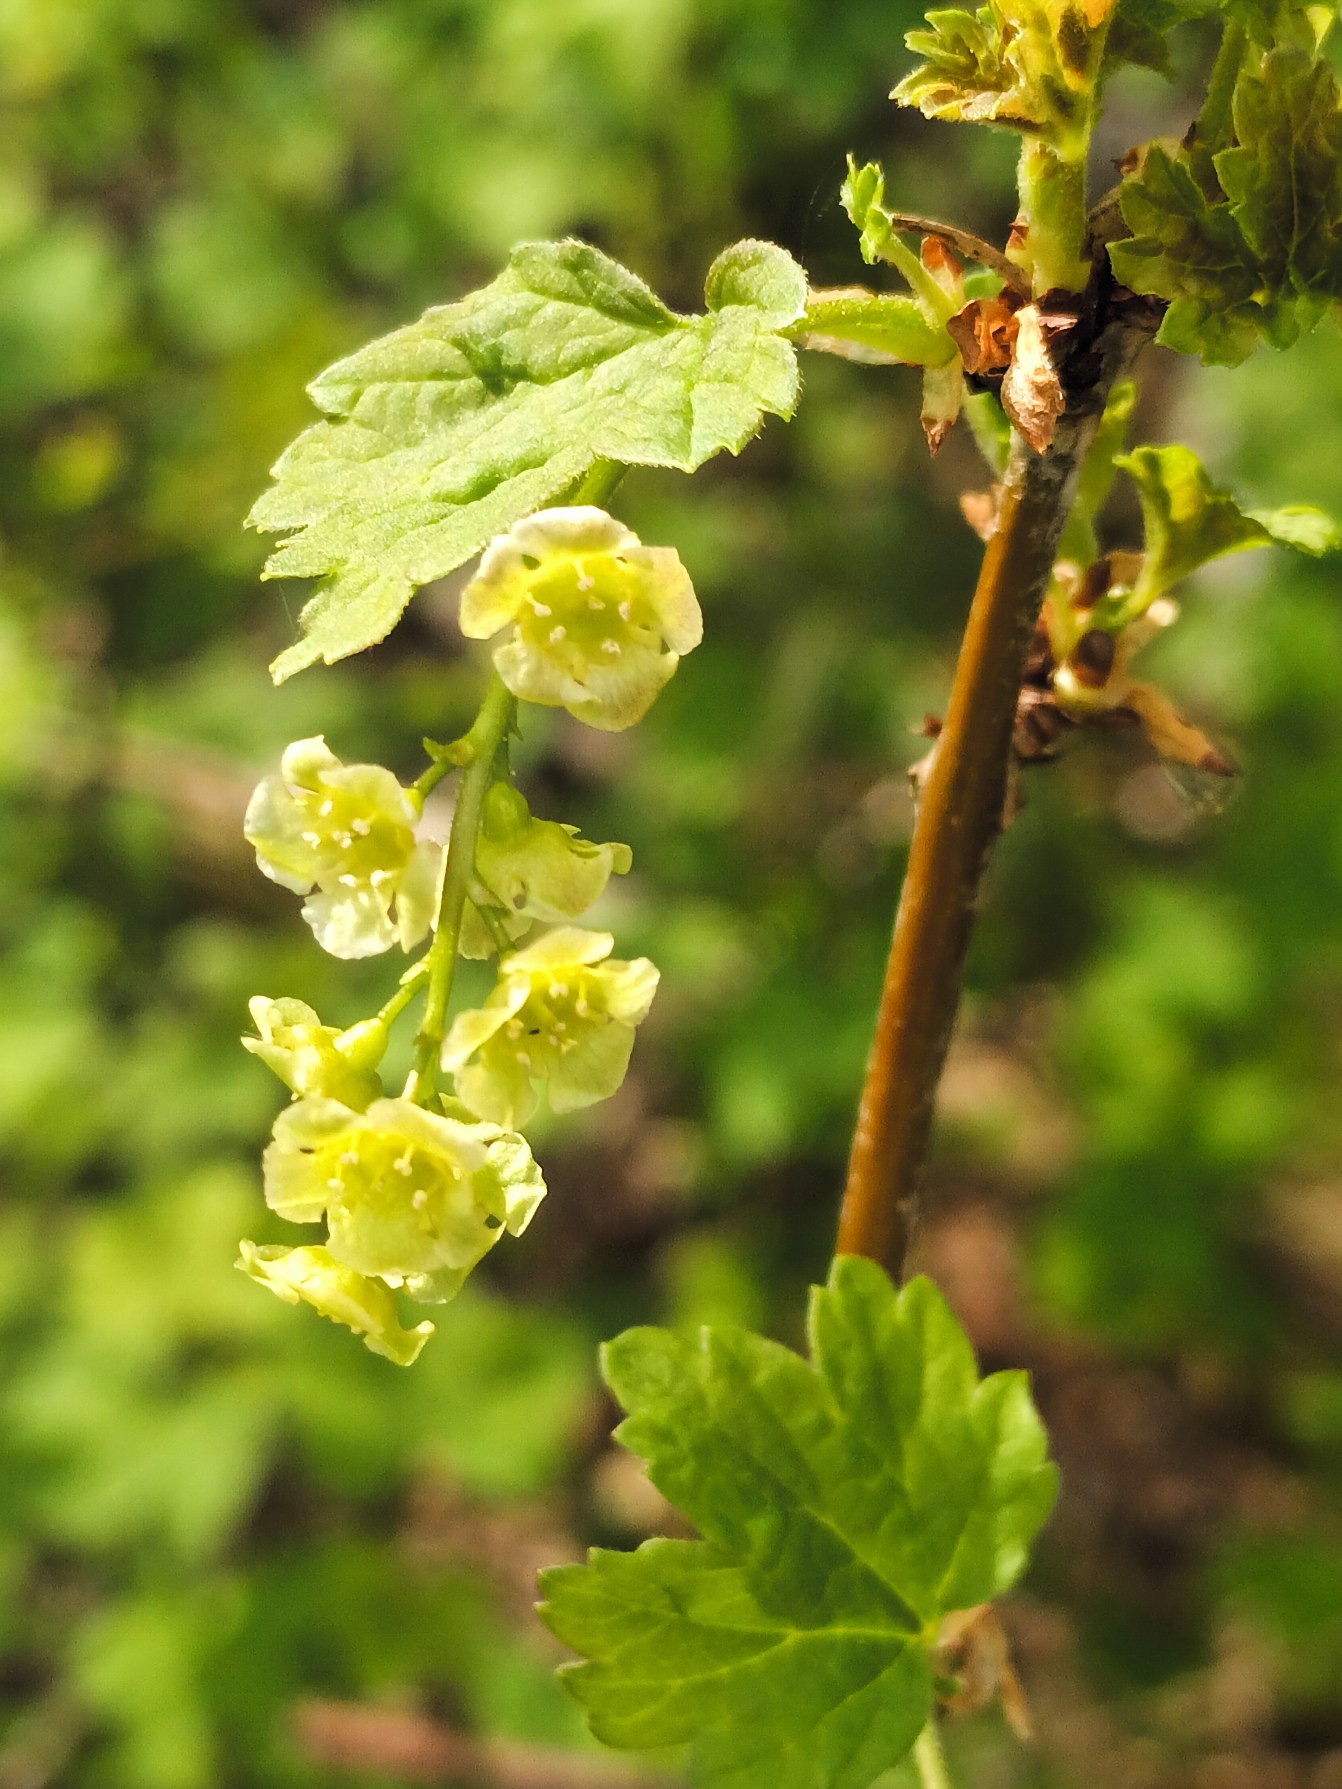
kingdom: Plantae
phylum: Tracheophyta
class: Magnoliopsida
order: Saxifragales
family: Grossulariaceae
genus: Ribes
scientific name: Ribes rubrum
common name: Slots-ribs
